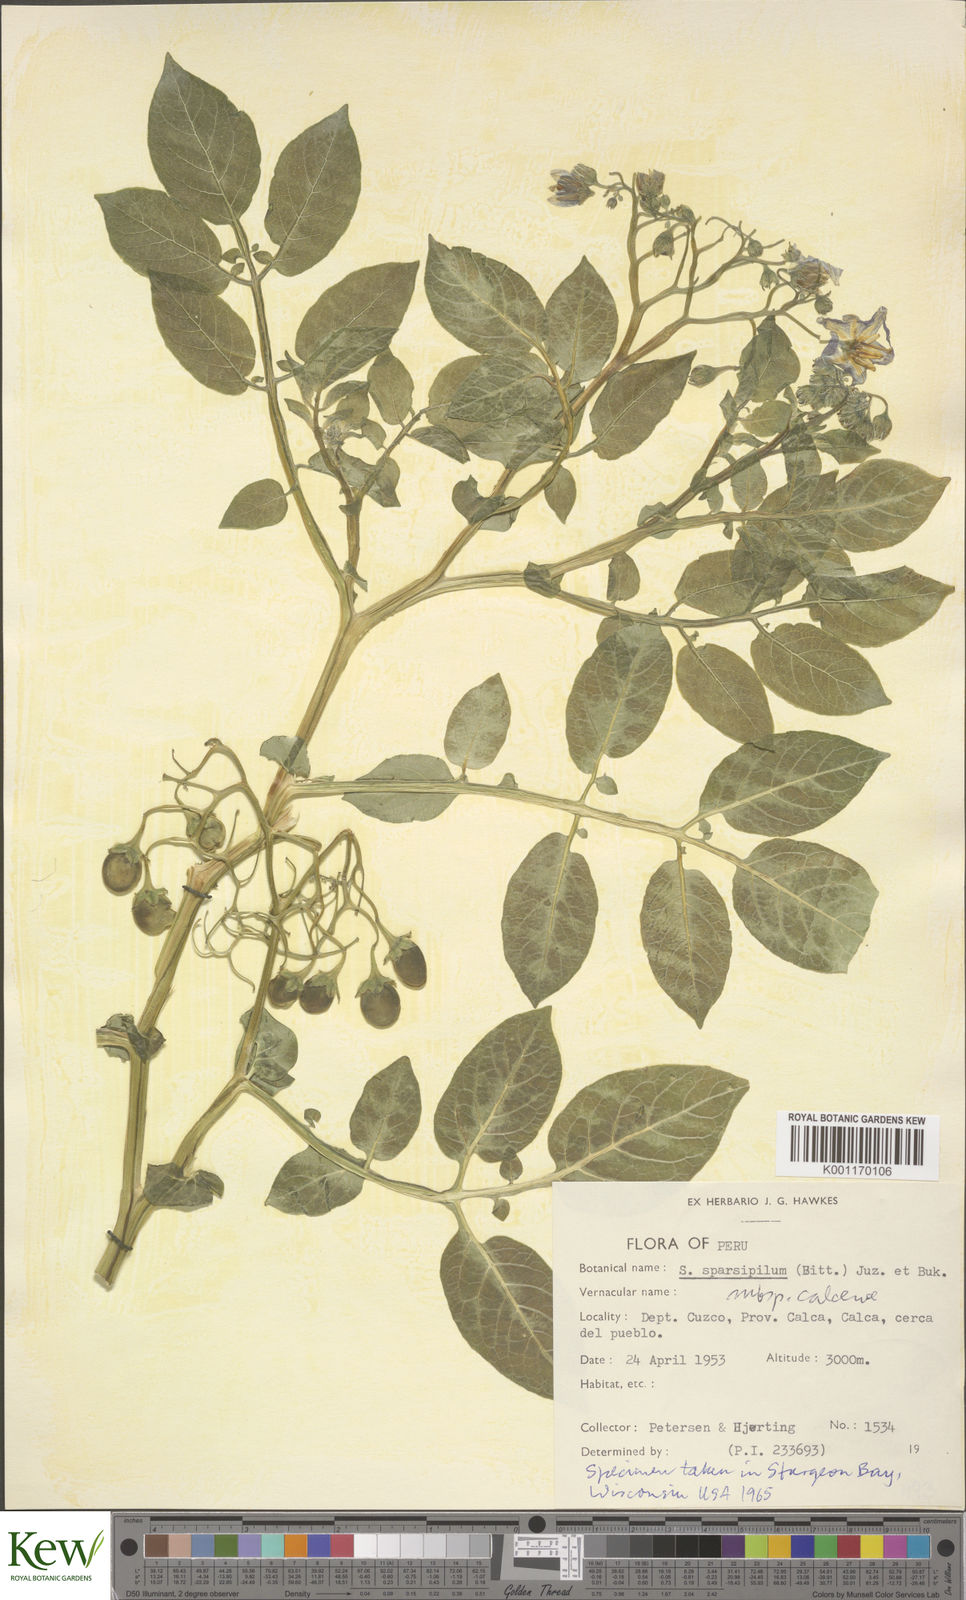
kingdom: Plantae
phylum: Tracheophyta
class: Magnoliopsida
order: Solanales
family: Solanaceae
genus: Solanum
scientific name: Solanum brevicaule
